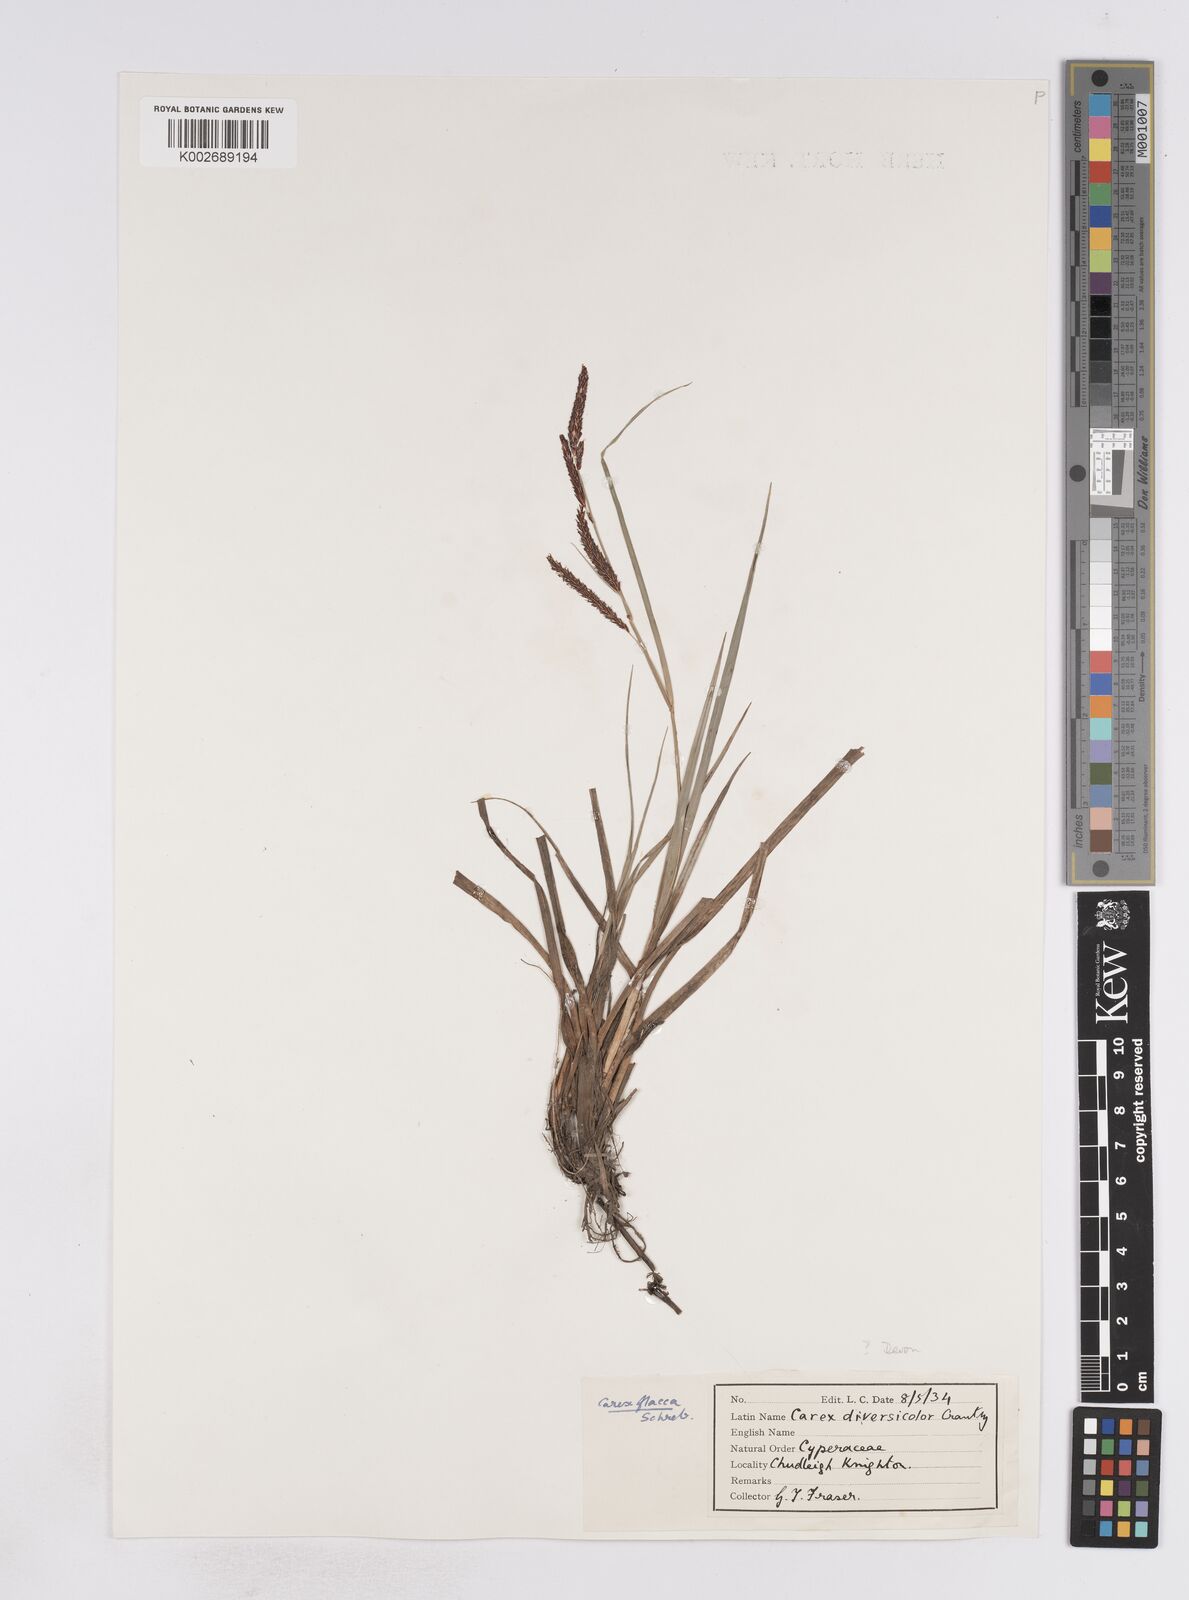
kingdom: Plantae
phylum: Tracheophyta
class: Liliopsida
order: Poales
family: Cyperaceae
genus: Carex
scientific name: Carex flacca
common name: Glaucous sedge
